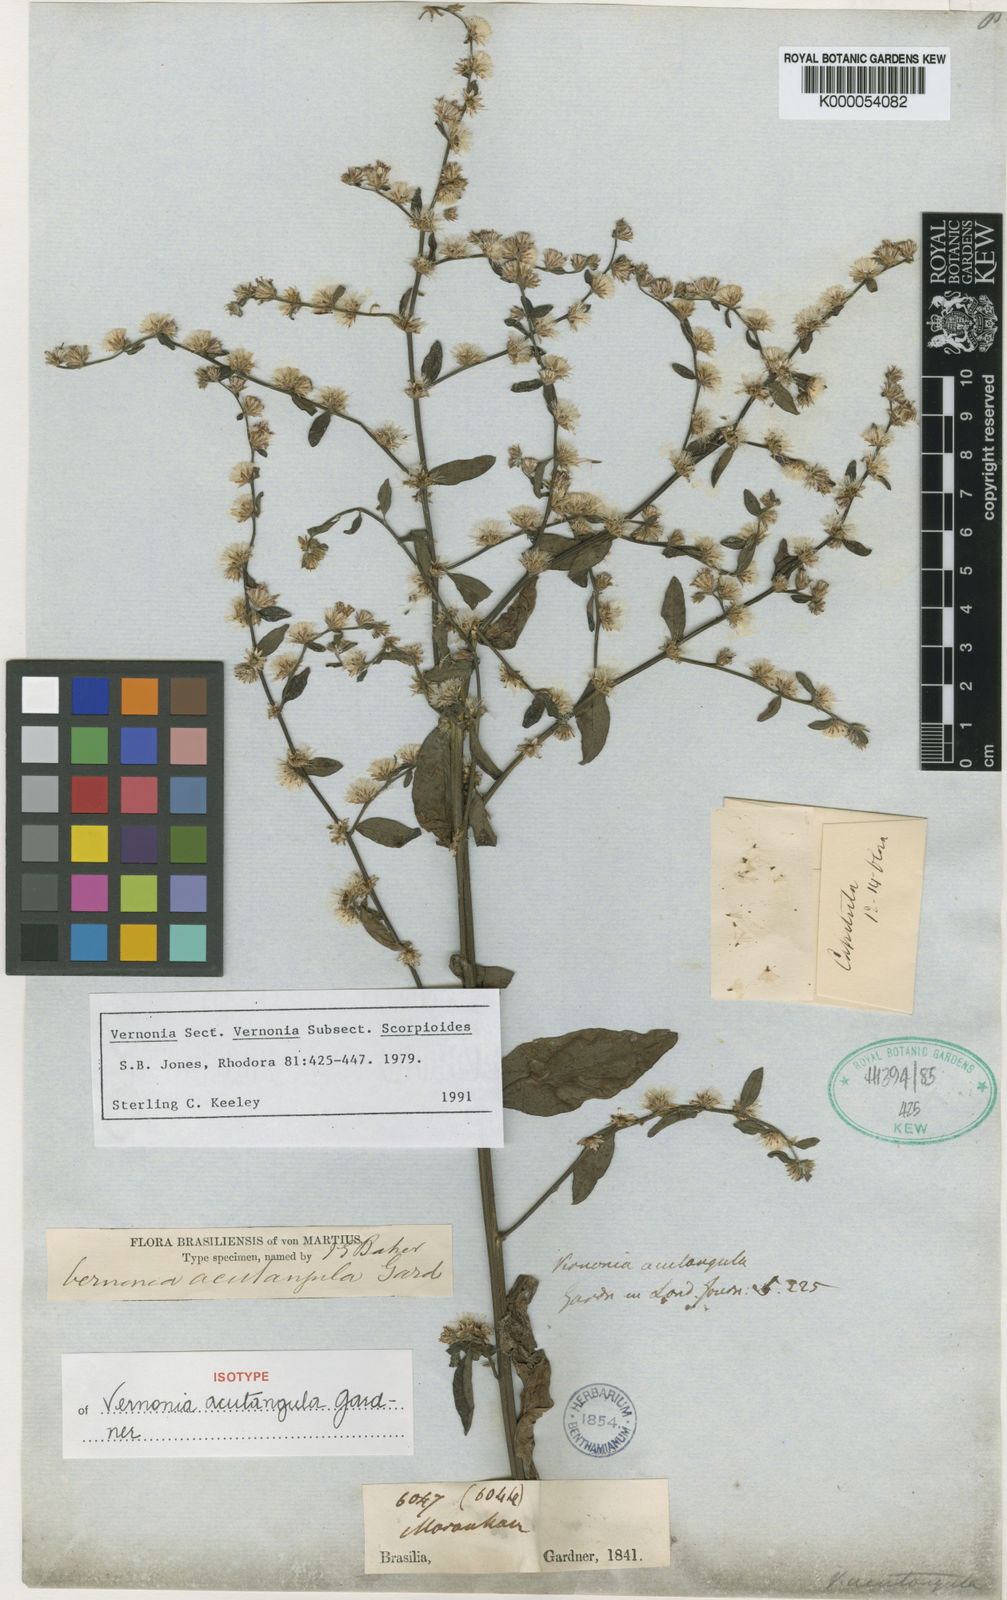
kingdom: Plantae
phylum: Tracheophyta
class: Magnoliopsida
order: Asterales
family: Asteraceae
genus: Lepidaploa
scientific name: Lepidaploa acutangula
